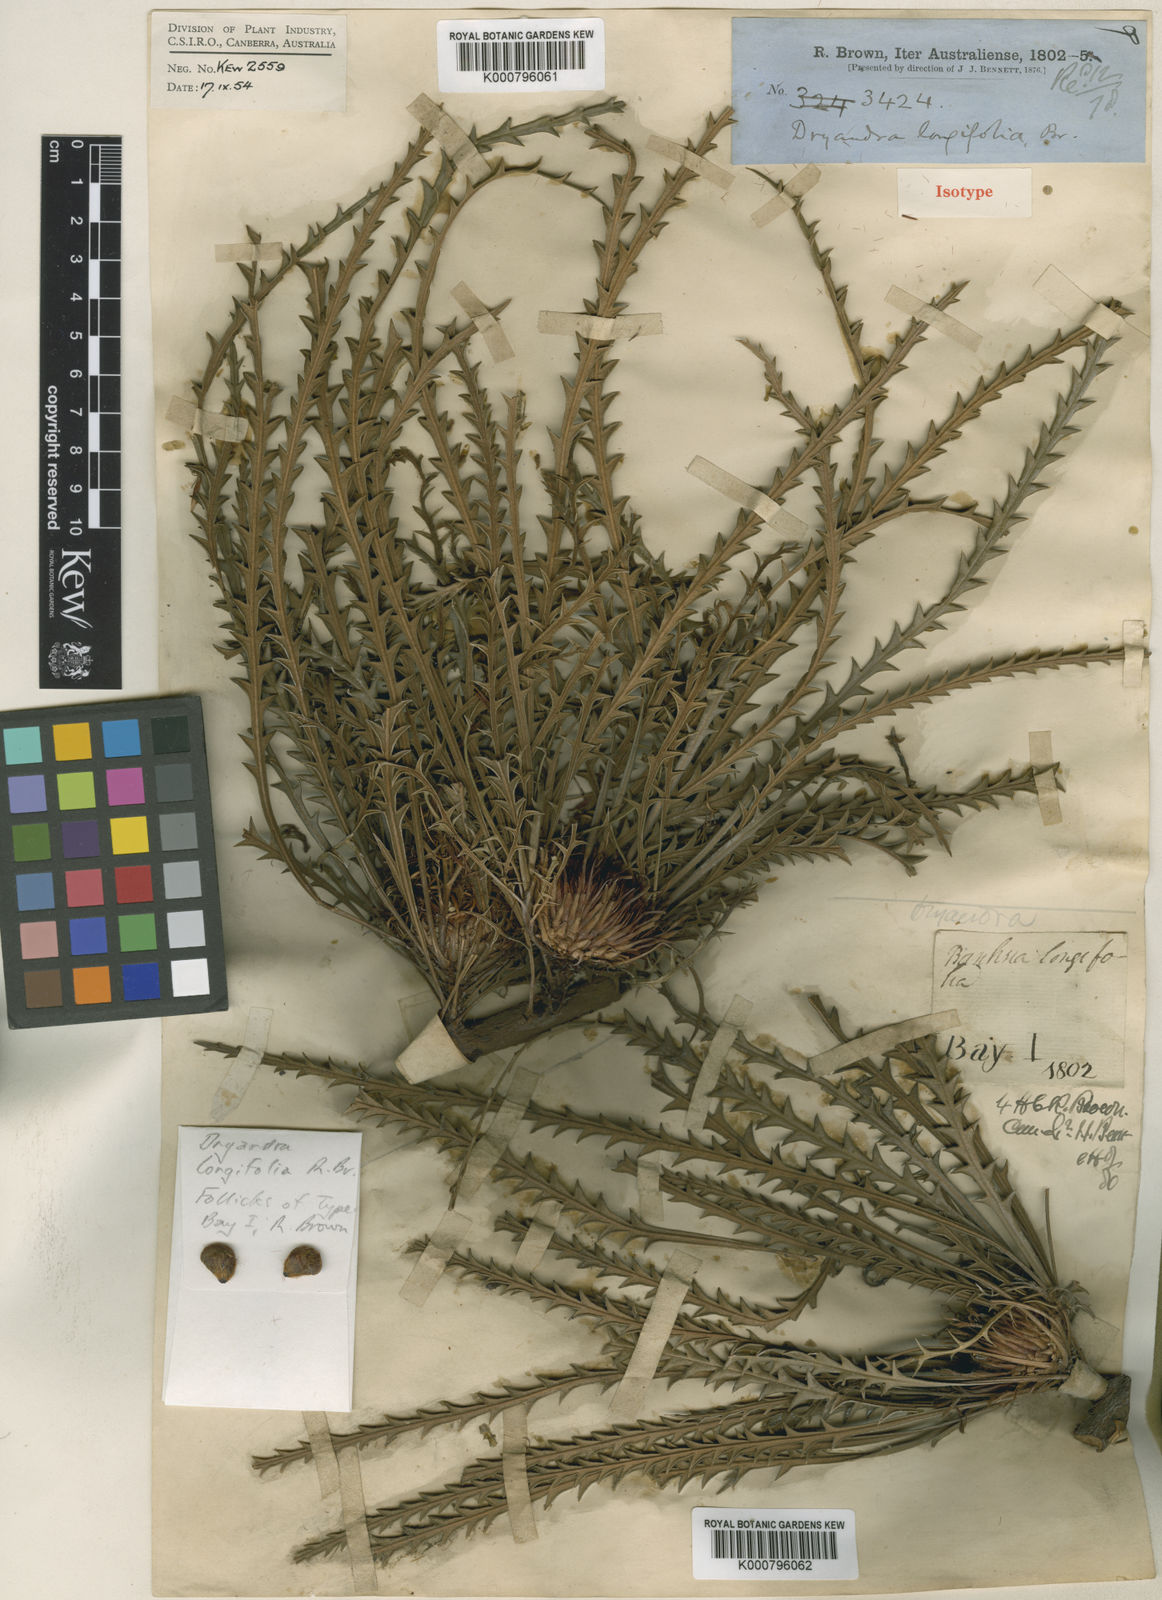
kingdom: Plantae
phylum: Tracheophyta
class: Magnoliopsida
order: Proteales
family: Proteaceae
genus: Banksia
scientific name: Banksia prolata
